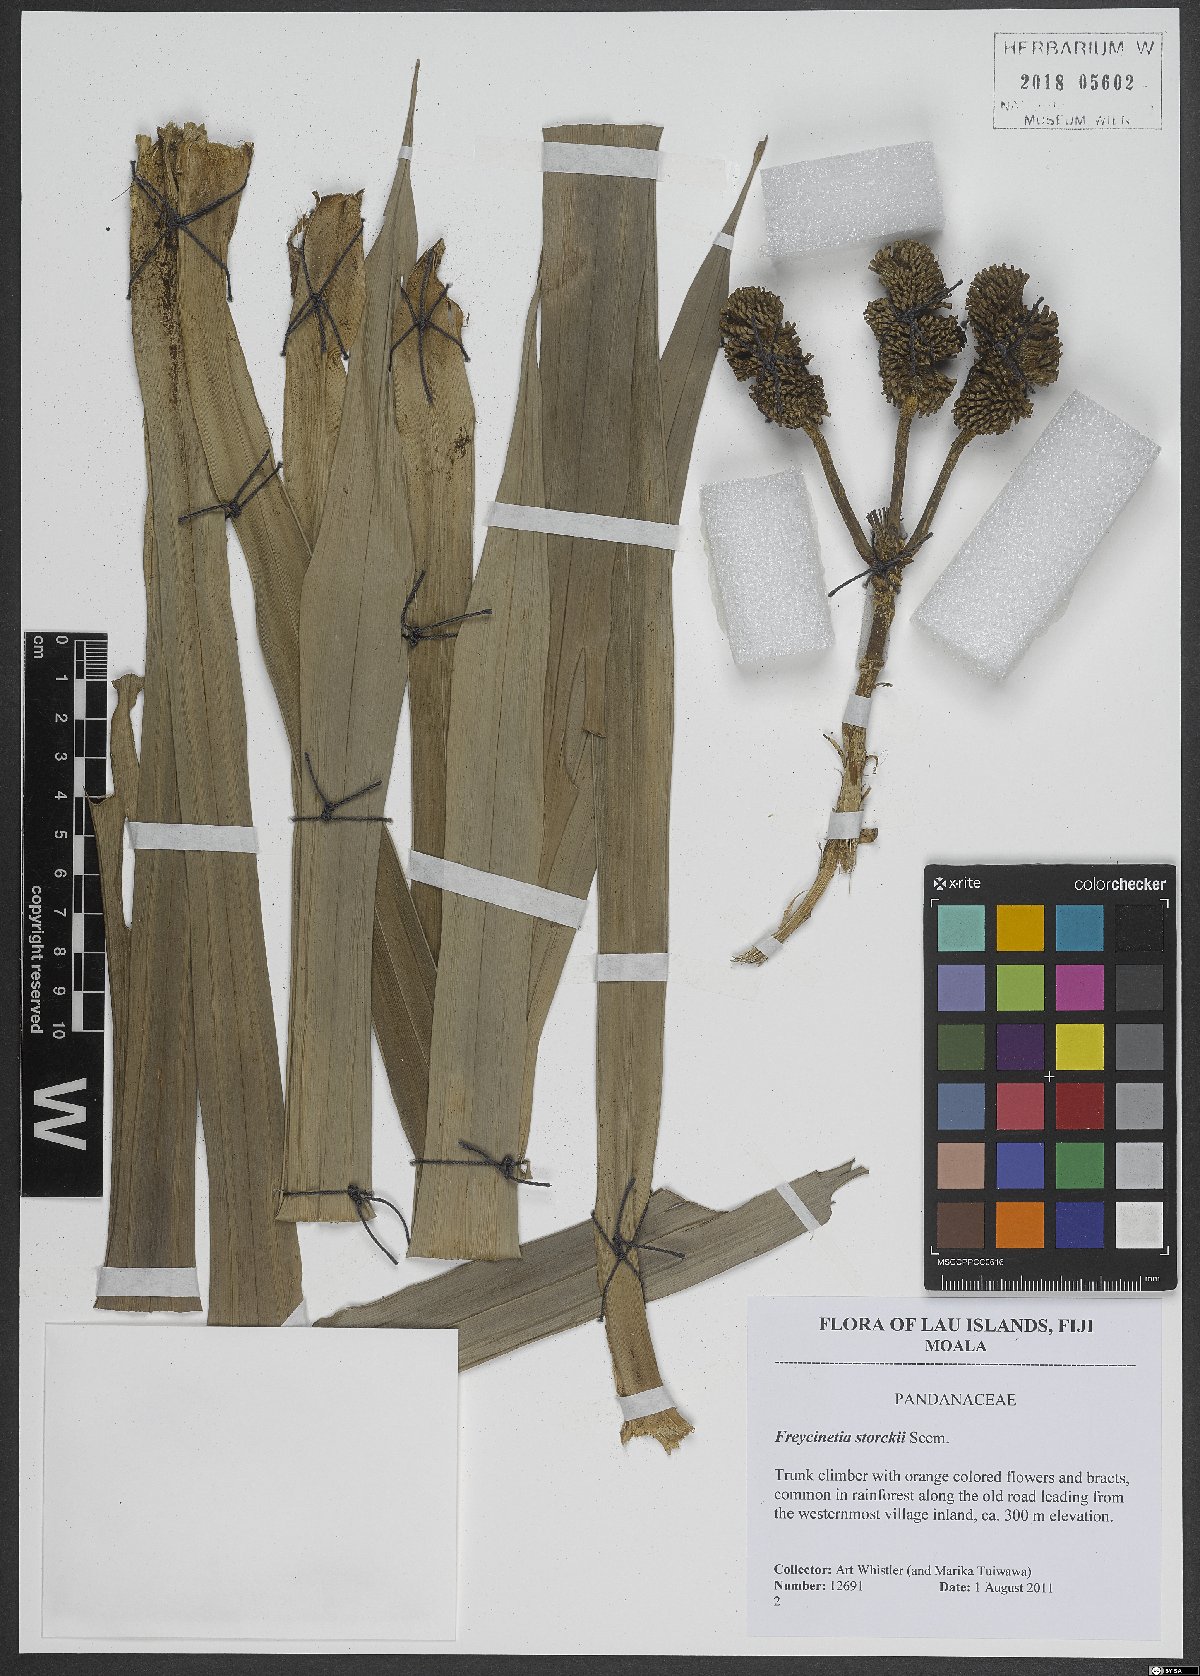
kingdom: Plantae
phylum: Tracheophyta
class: Liliopsida
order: Pandanales
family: Pandanaceae
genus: Freycinetia
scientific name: Freycinetia storckii
